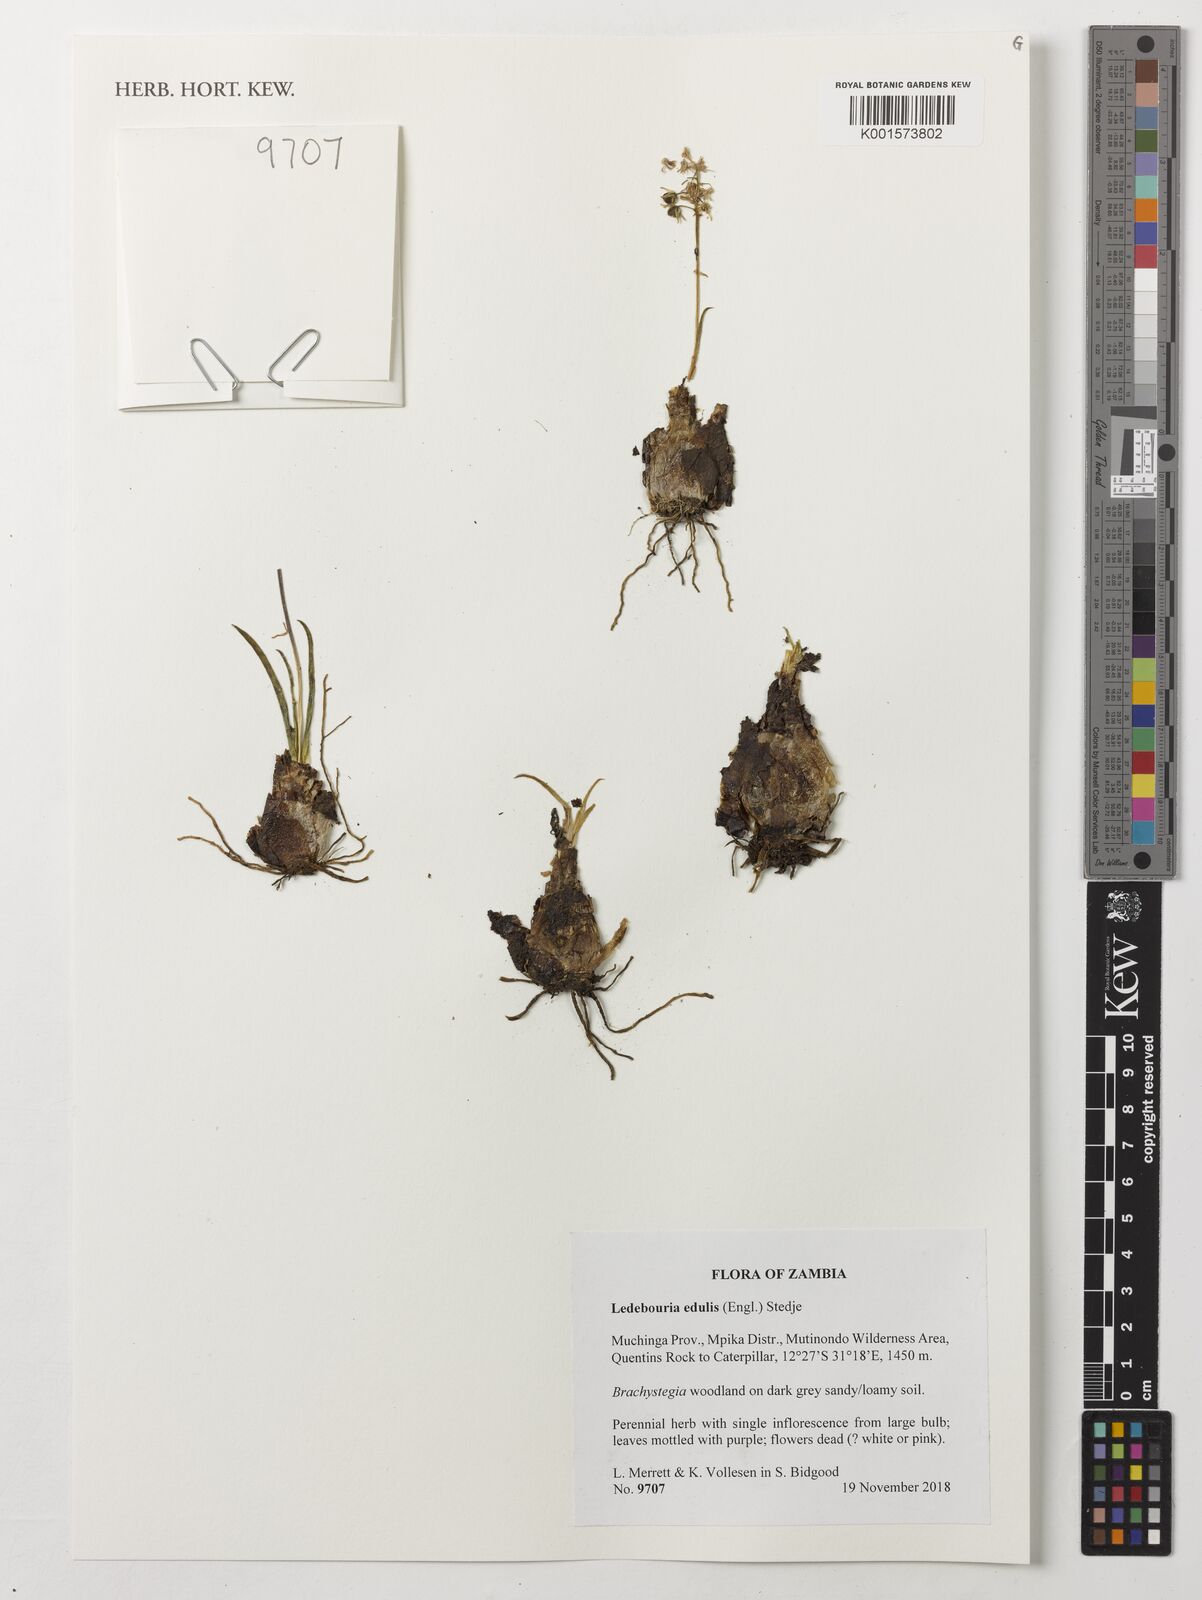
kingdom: Plantae
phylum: Tracheophyta
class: Liliopsida
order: Asparagales
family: Asparagaceae
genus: Ledebouria
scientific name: Ledebouria edulis
